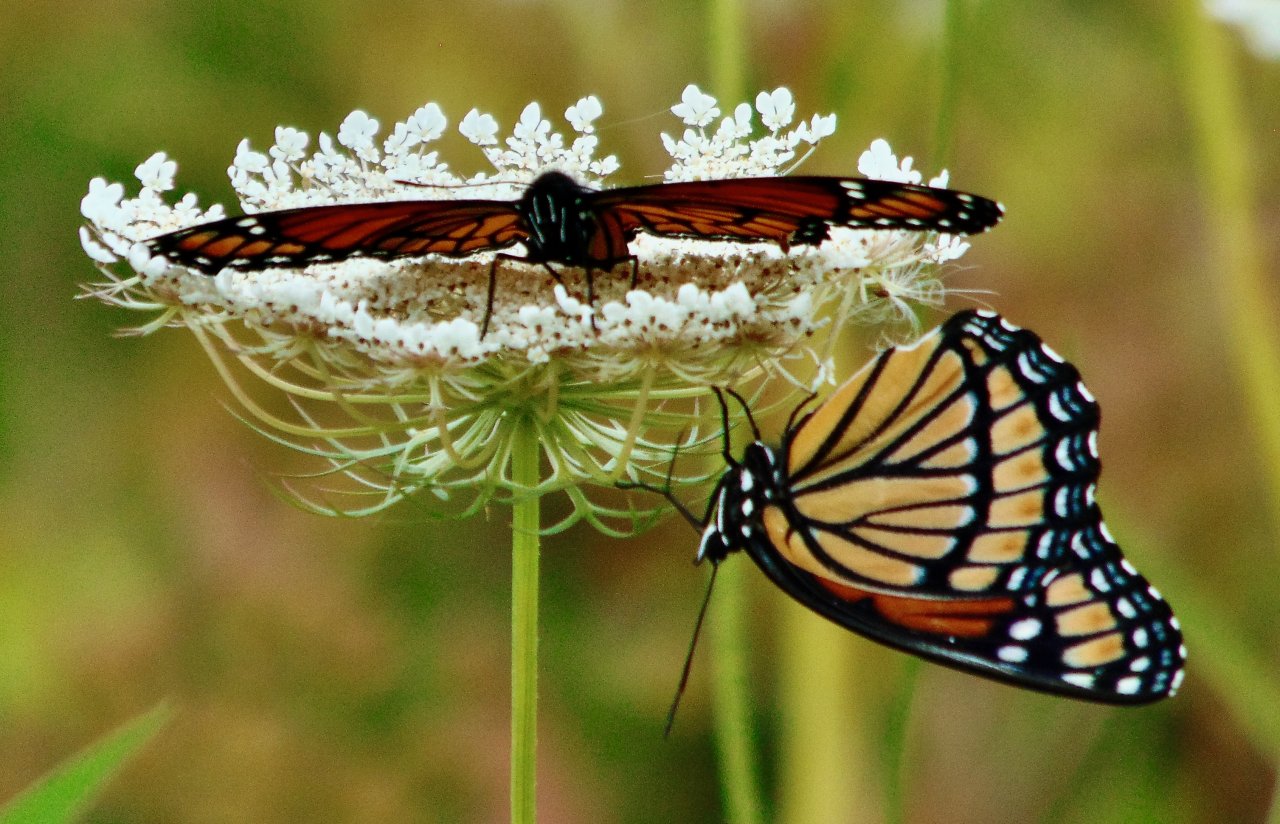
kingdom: Animalia
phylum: Arthropoda
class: Insecta
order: Lepidoptera
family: Nymphalidae
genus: Limenitis
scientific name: Limenitis archippus
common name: Viceroy
